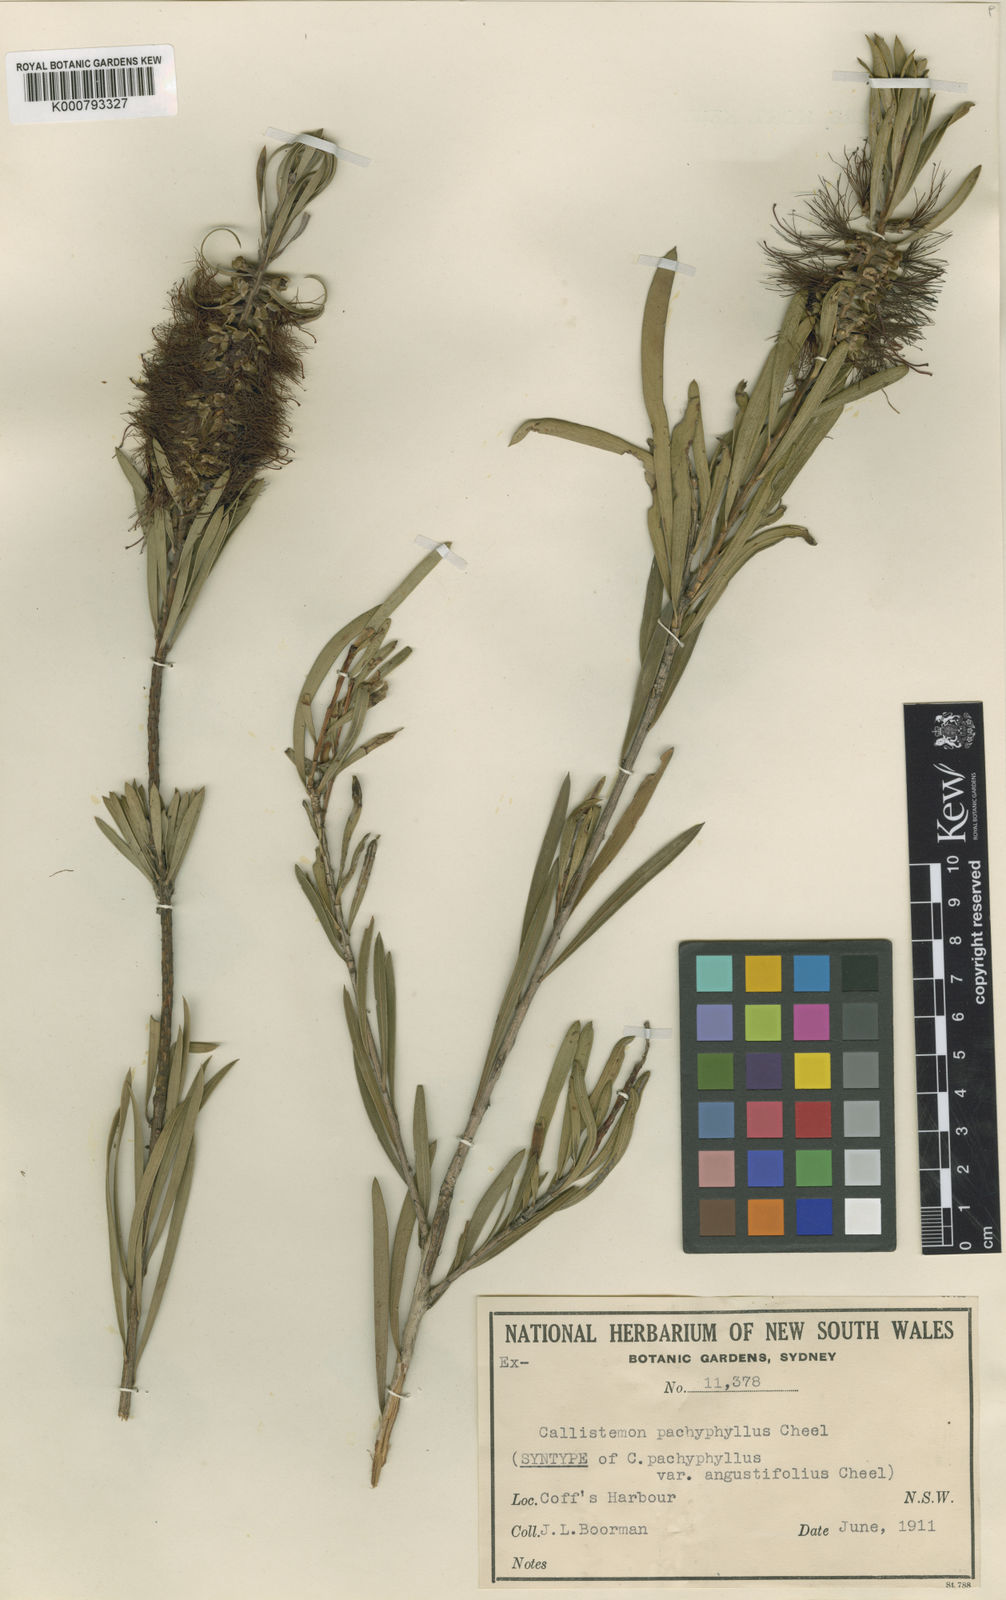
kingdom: Plantae
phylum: Tracheophyta
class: Magnoliopsida
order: Myrtales
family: Myrtaceae
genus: Callistemon
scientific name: Callistemon pachyphyllus
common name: Wallum bottlebrush
